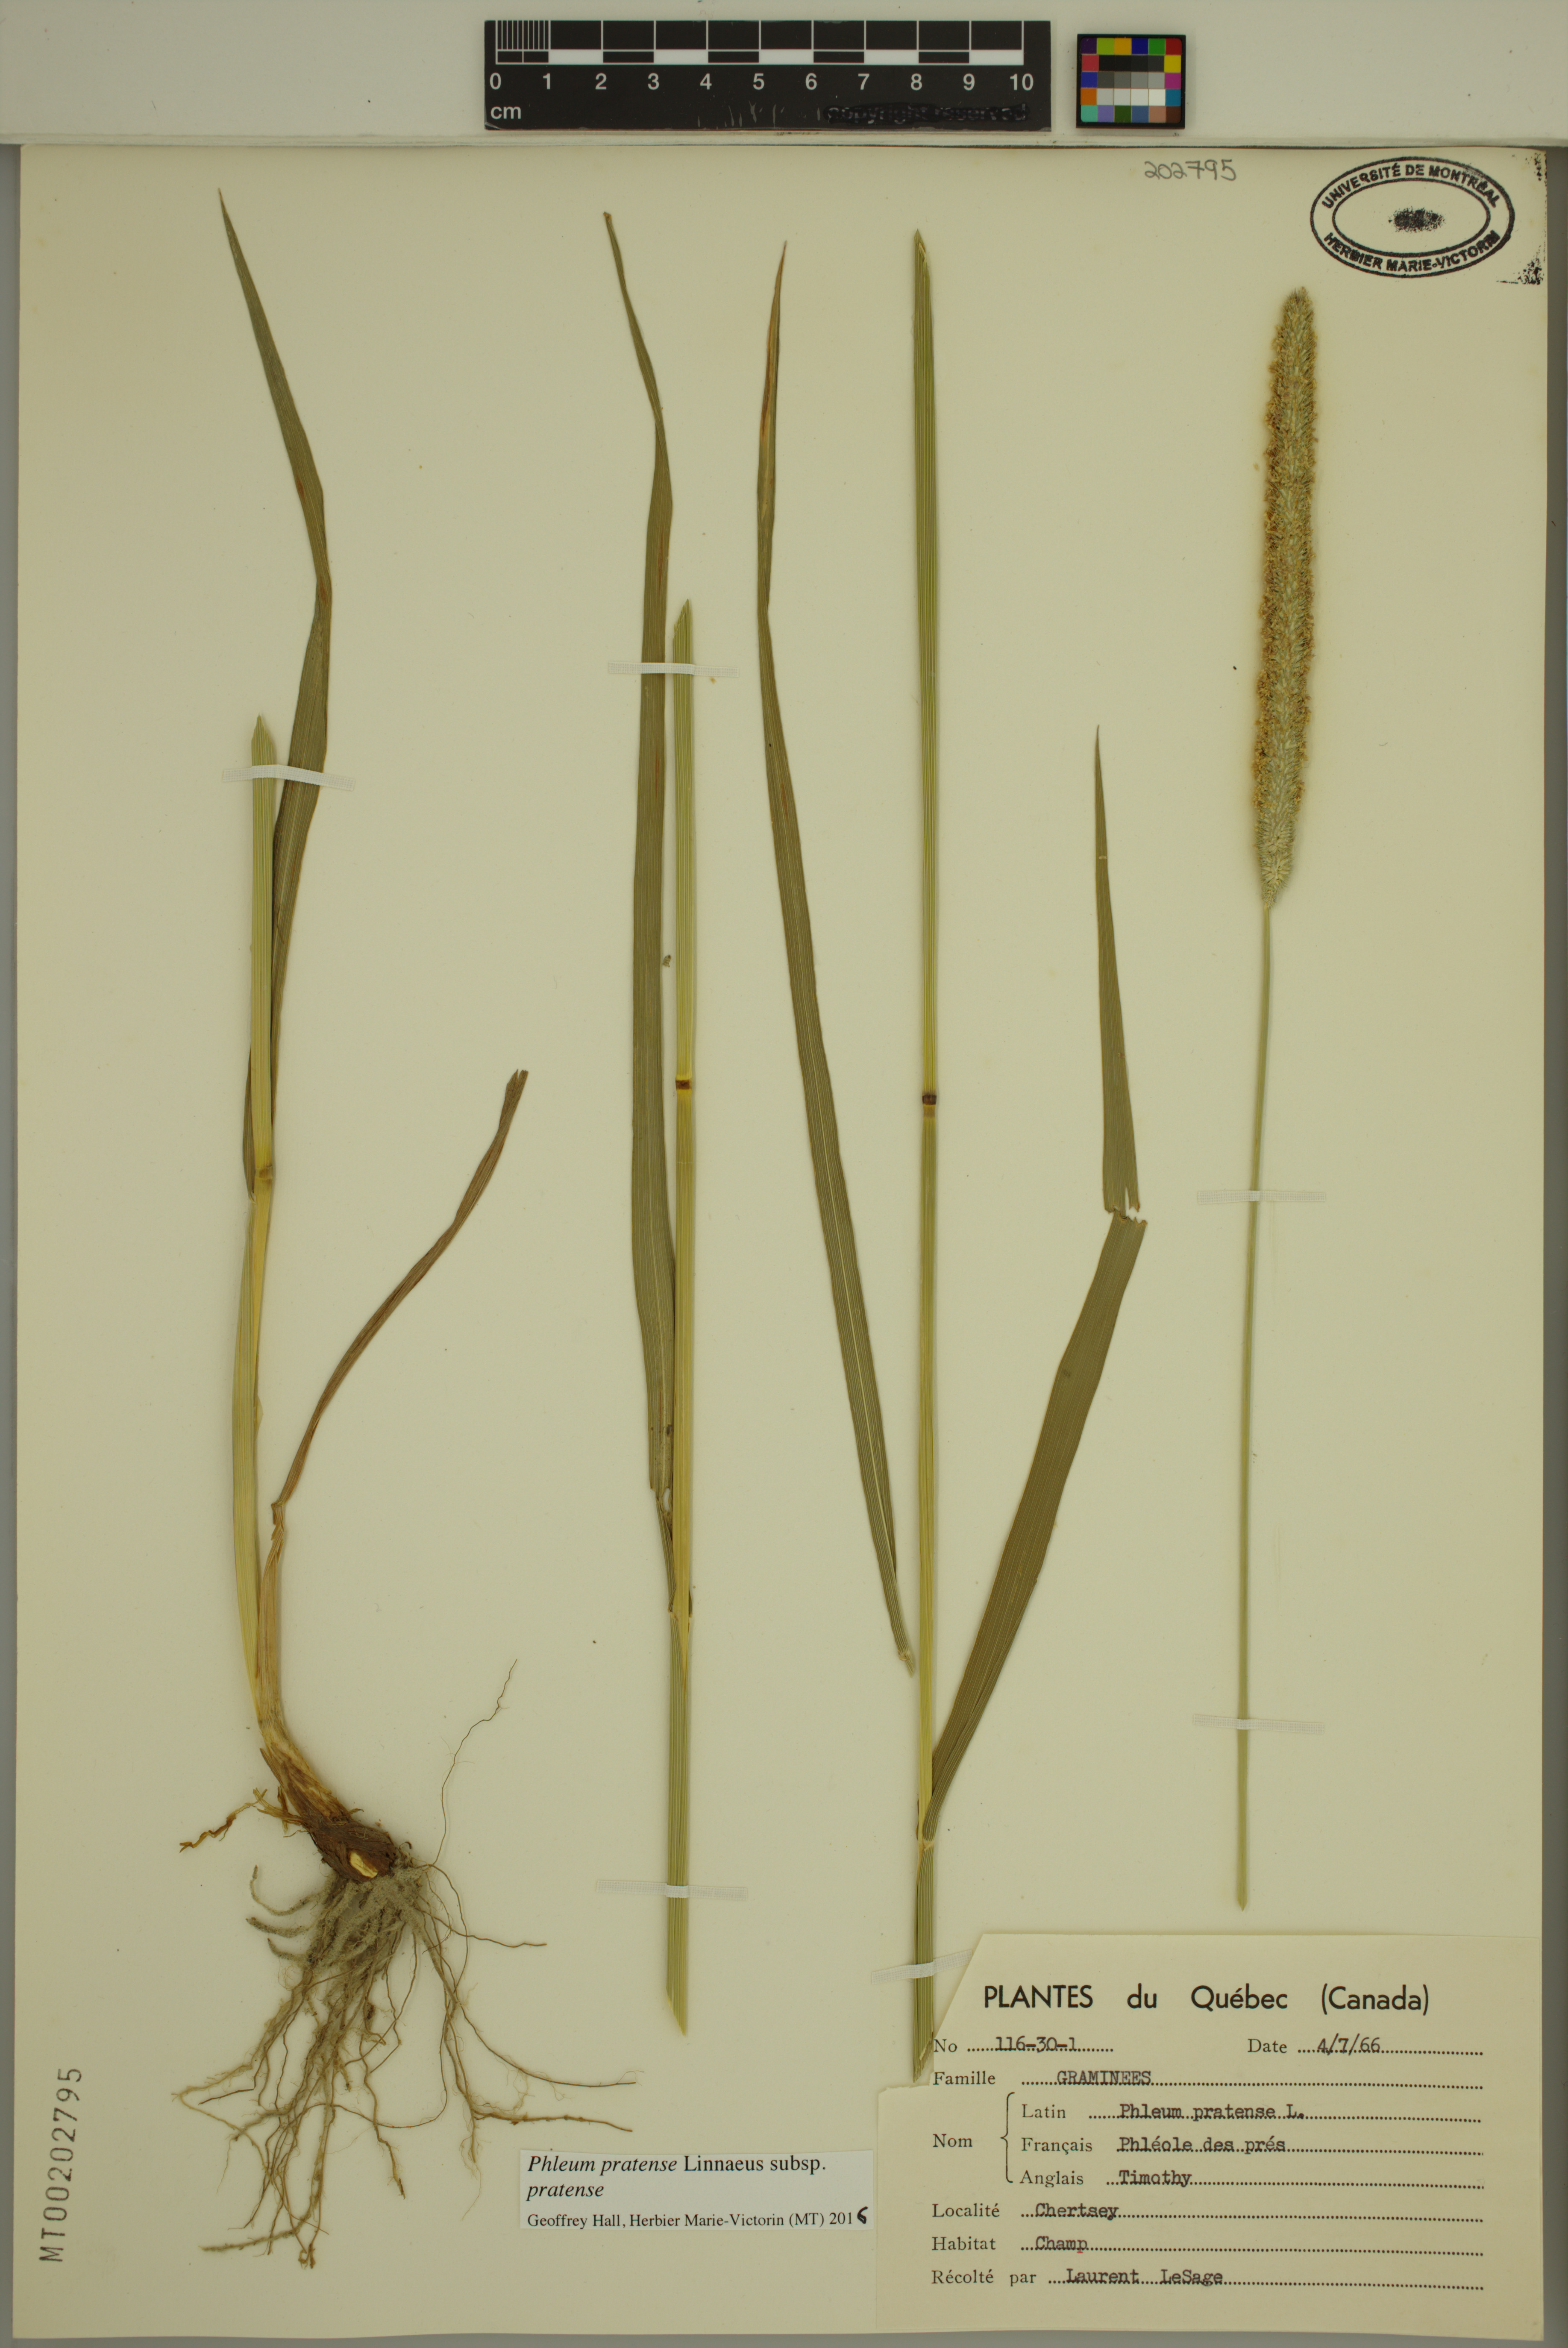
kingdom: Plantae
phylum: Tracheophyta
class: Liliopsida
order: Poales
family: Poaceae
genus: Phleum
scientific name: Phleum pratense
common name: Timothy grass
